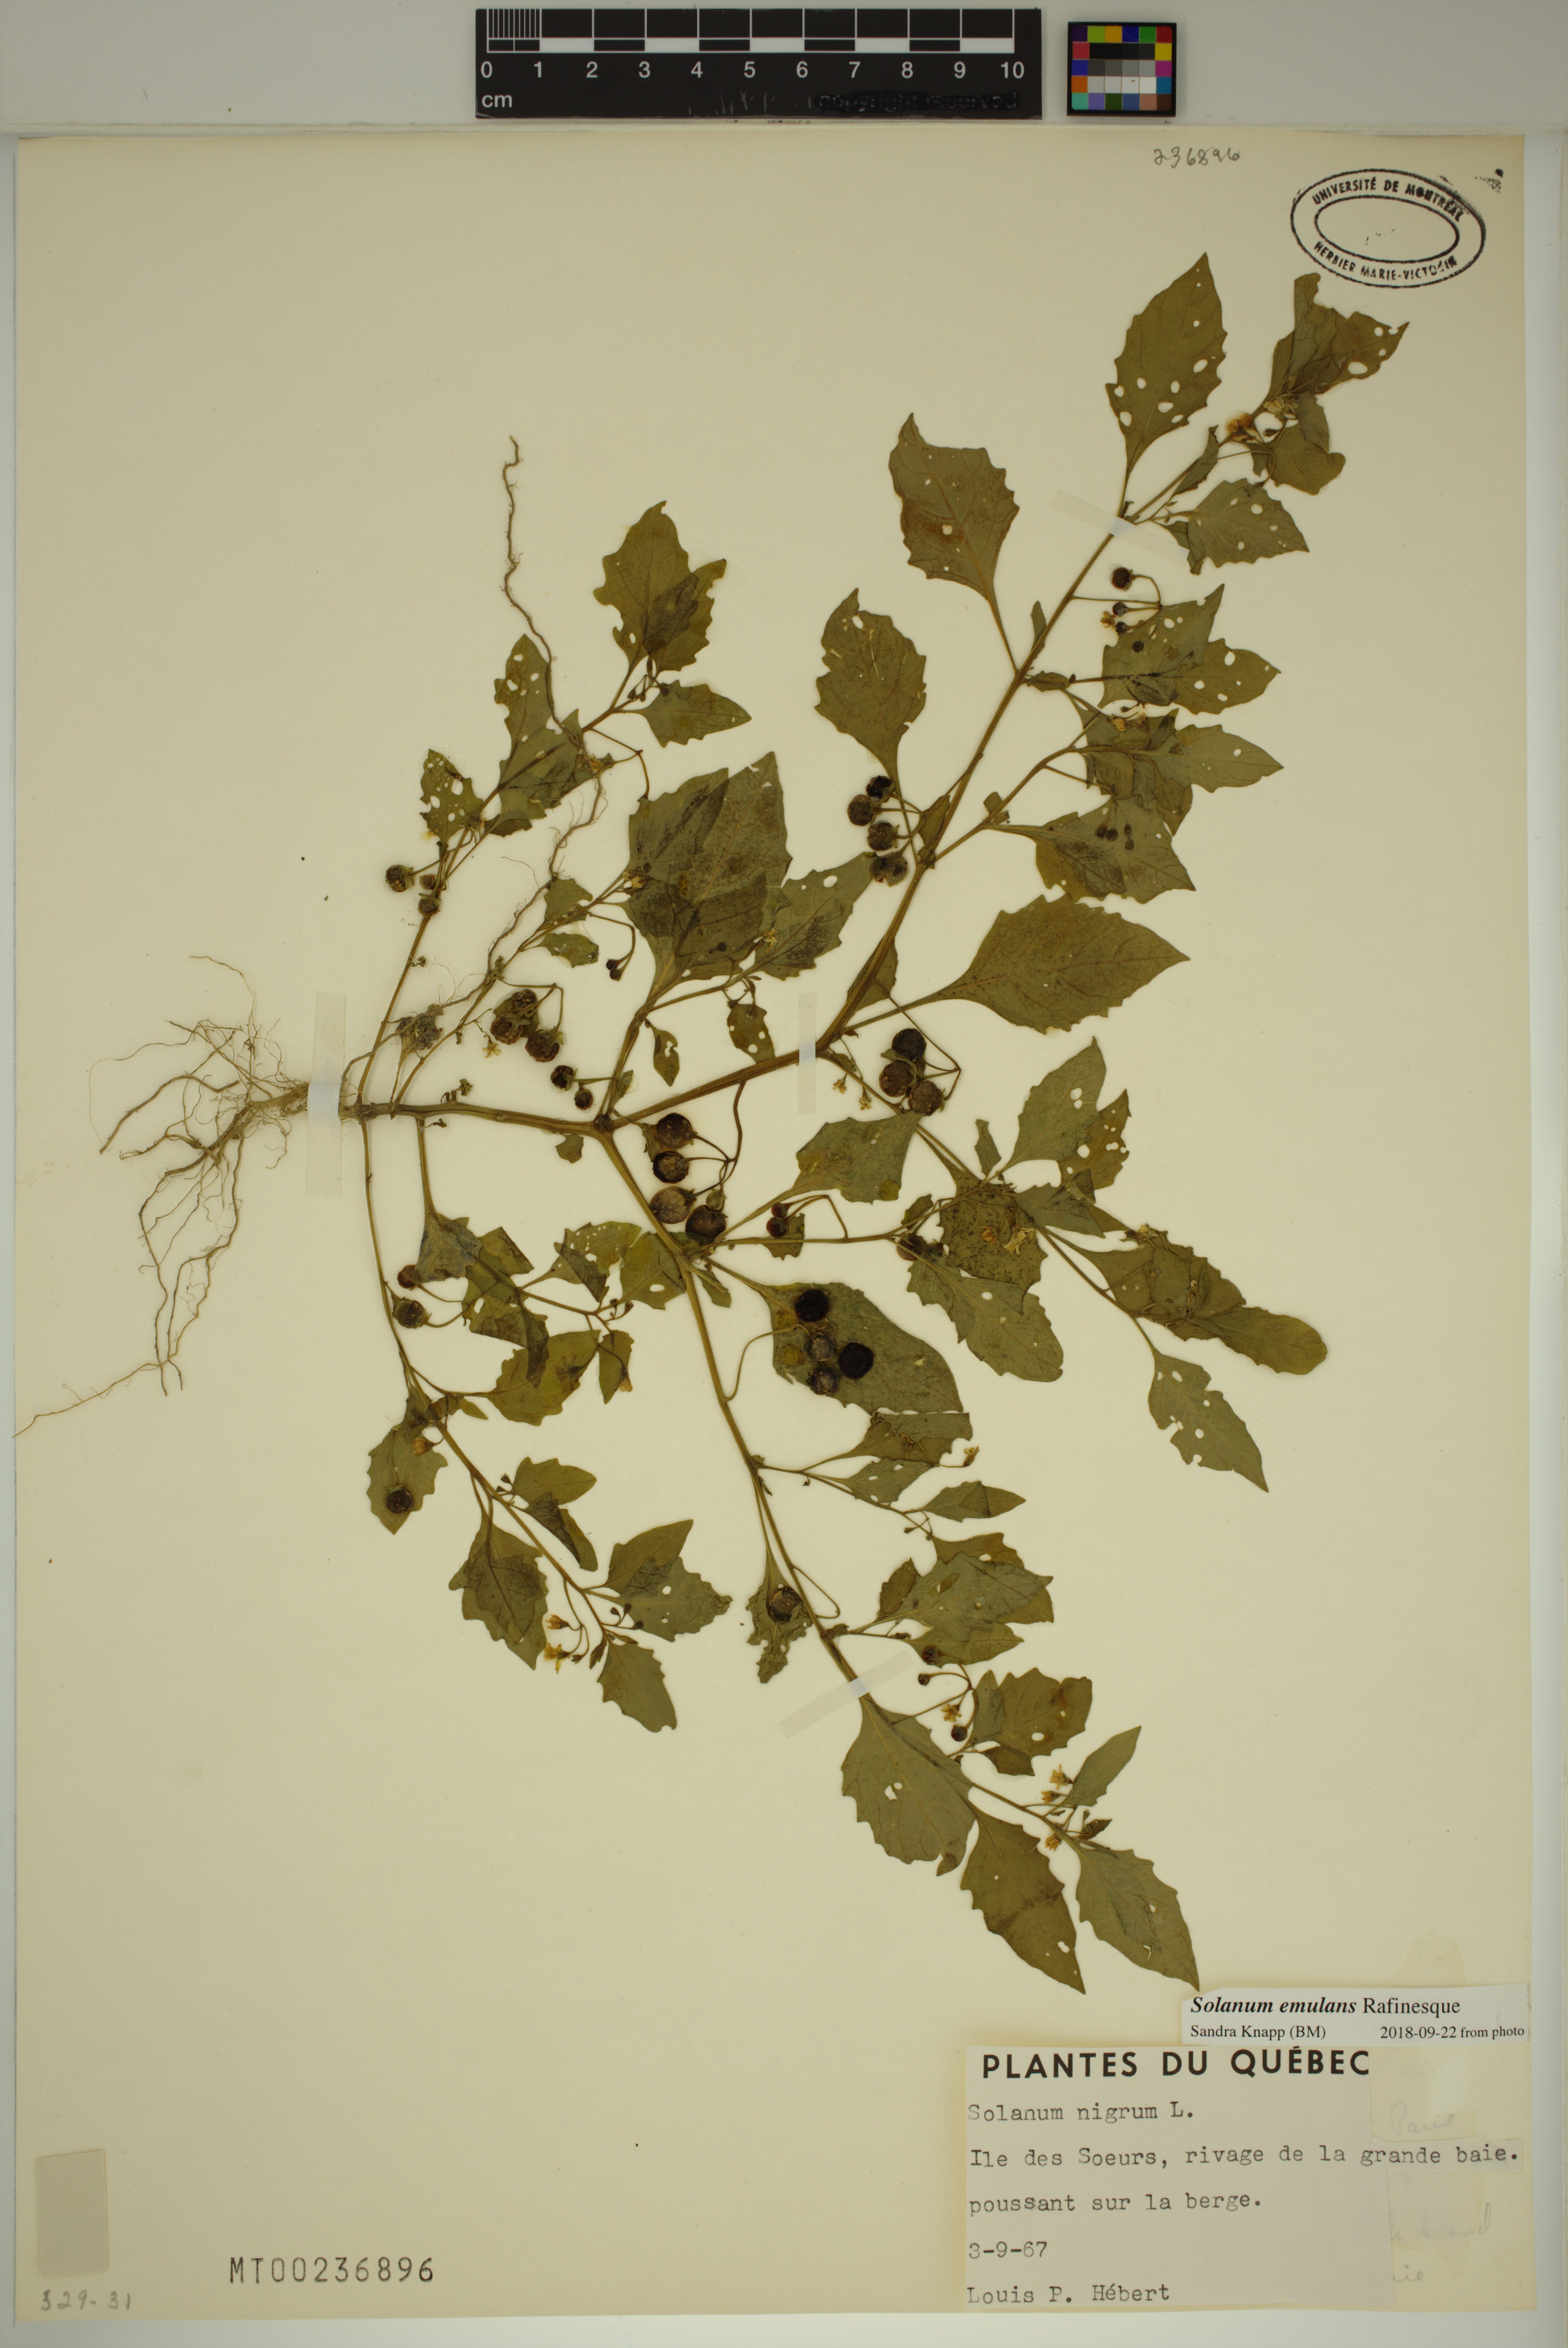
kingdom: Plantae
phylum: Tracheophyta
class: Magnoliopsida
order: Solanales
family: Solanaceae
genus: Solanum
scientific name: Solanum emulans
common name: Eastern black nightshade
